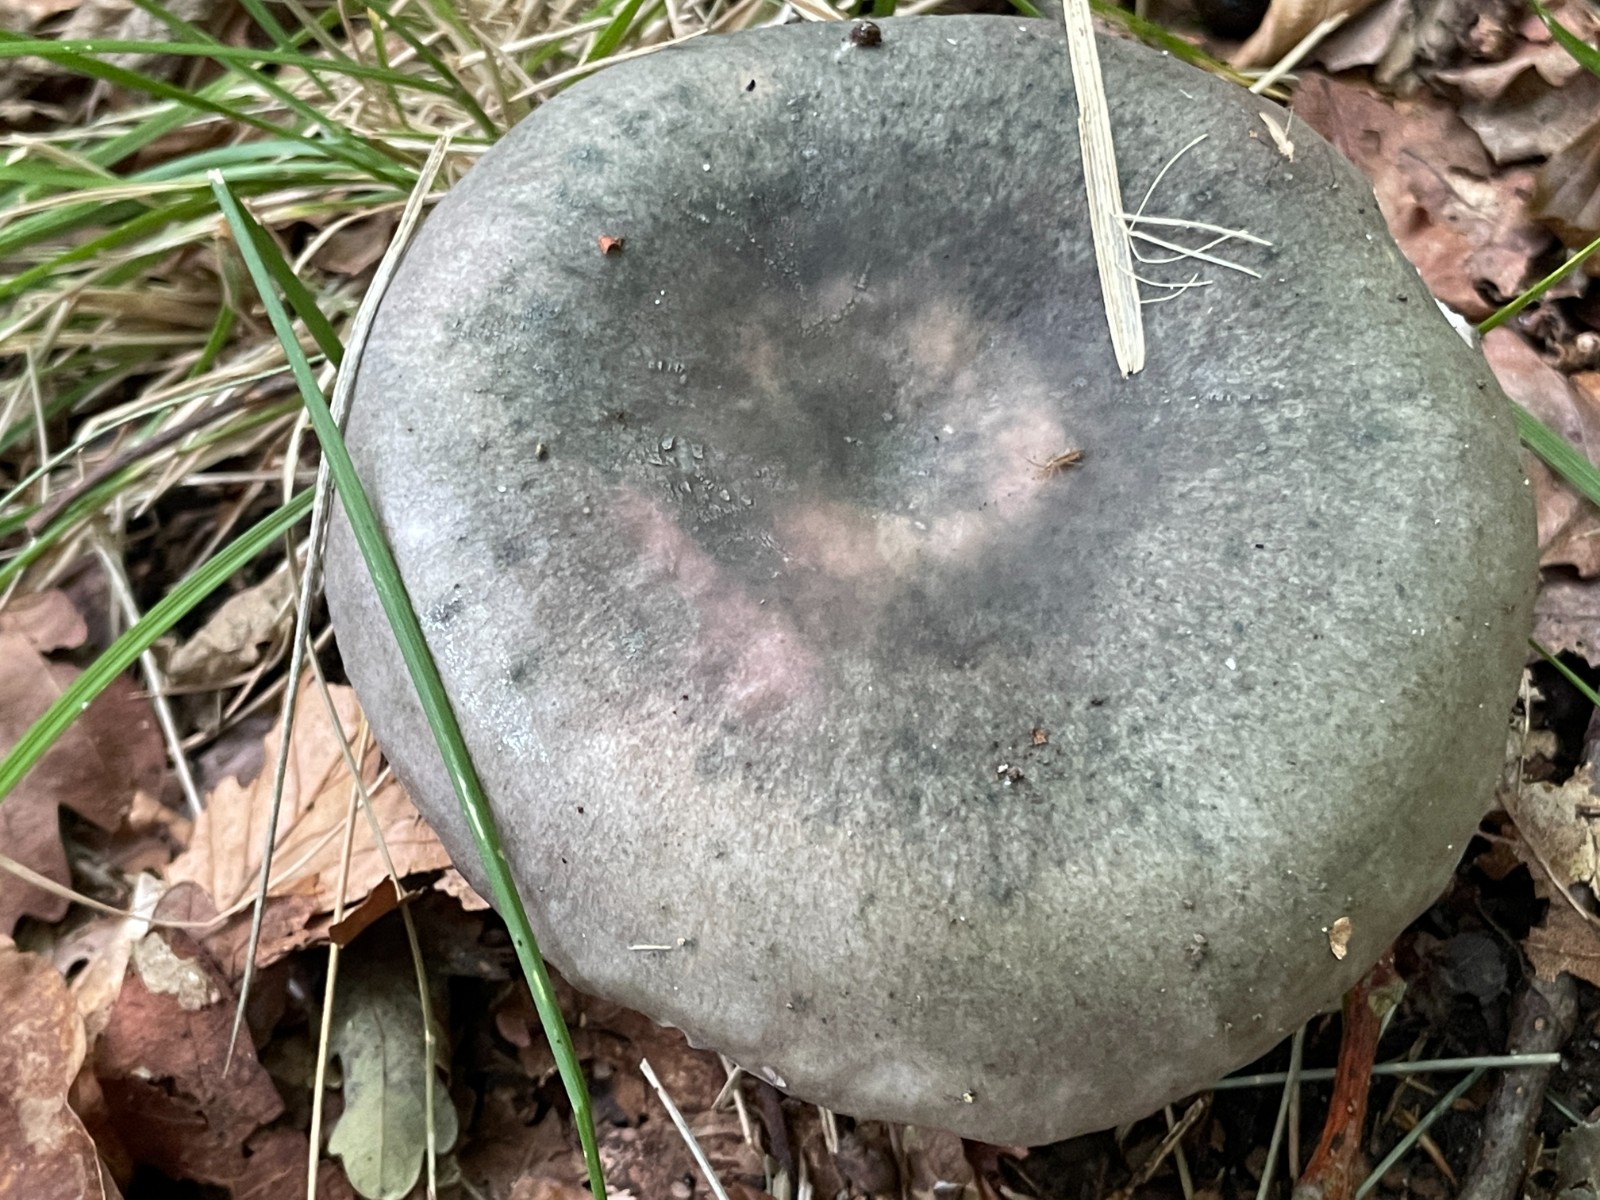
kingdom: Fungi
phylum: Basidiomycota
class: Agaricomycetes
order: Russulales
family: Russulaceae
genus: Russula
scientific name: Russula cyanoxantha
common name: broget skørhat
